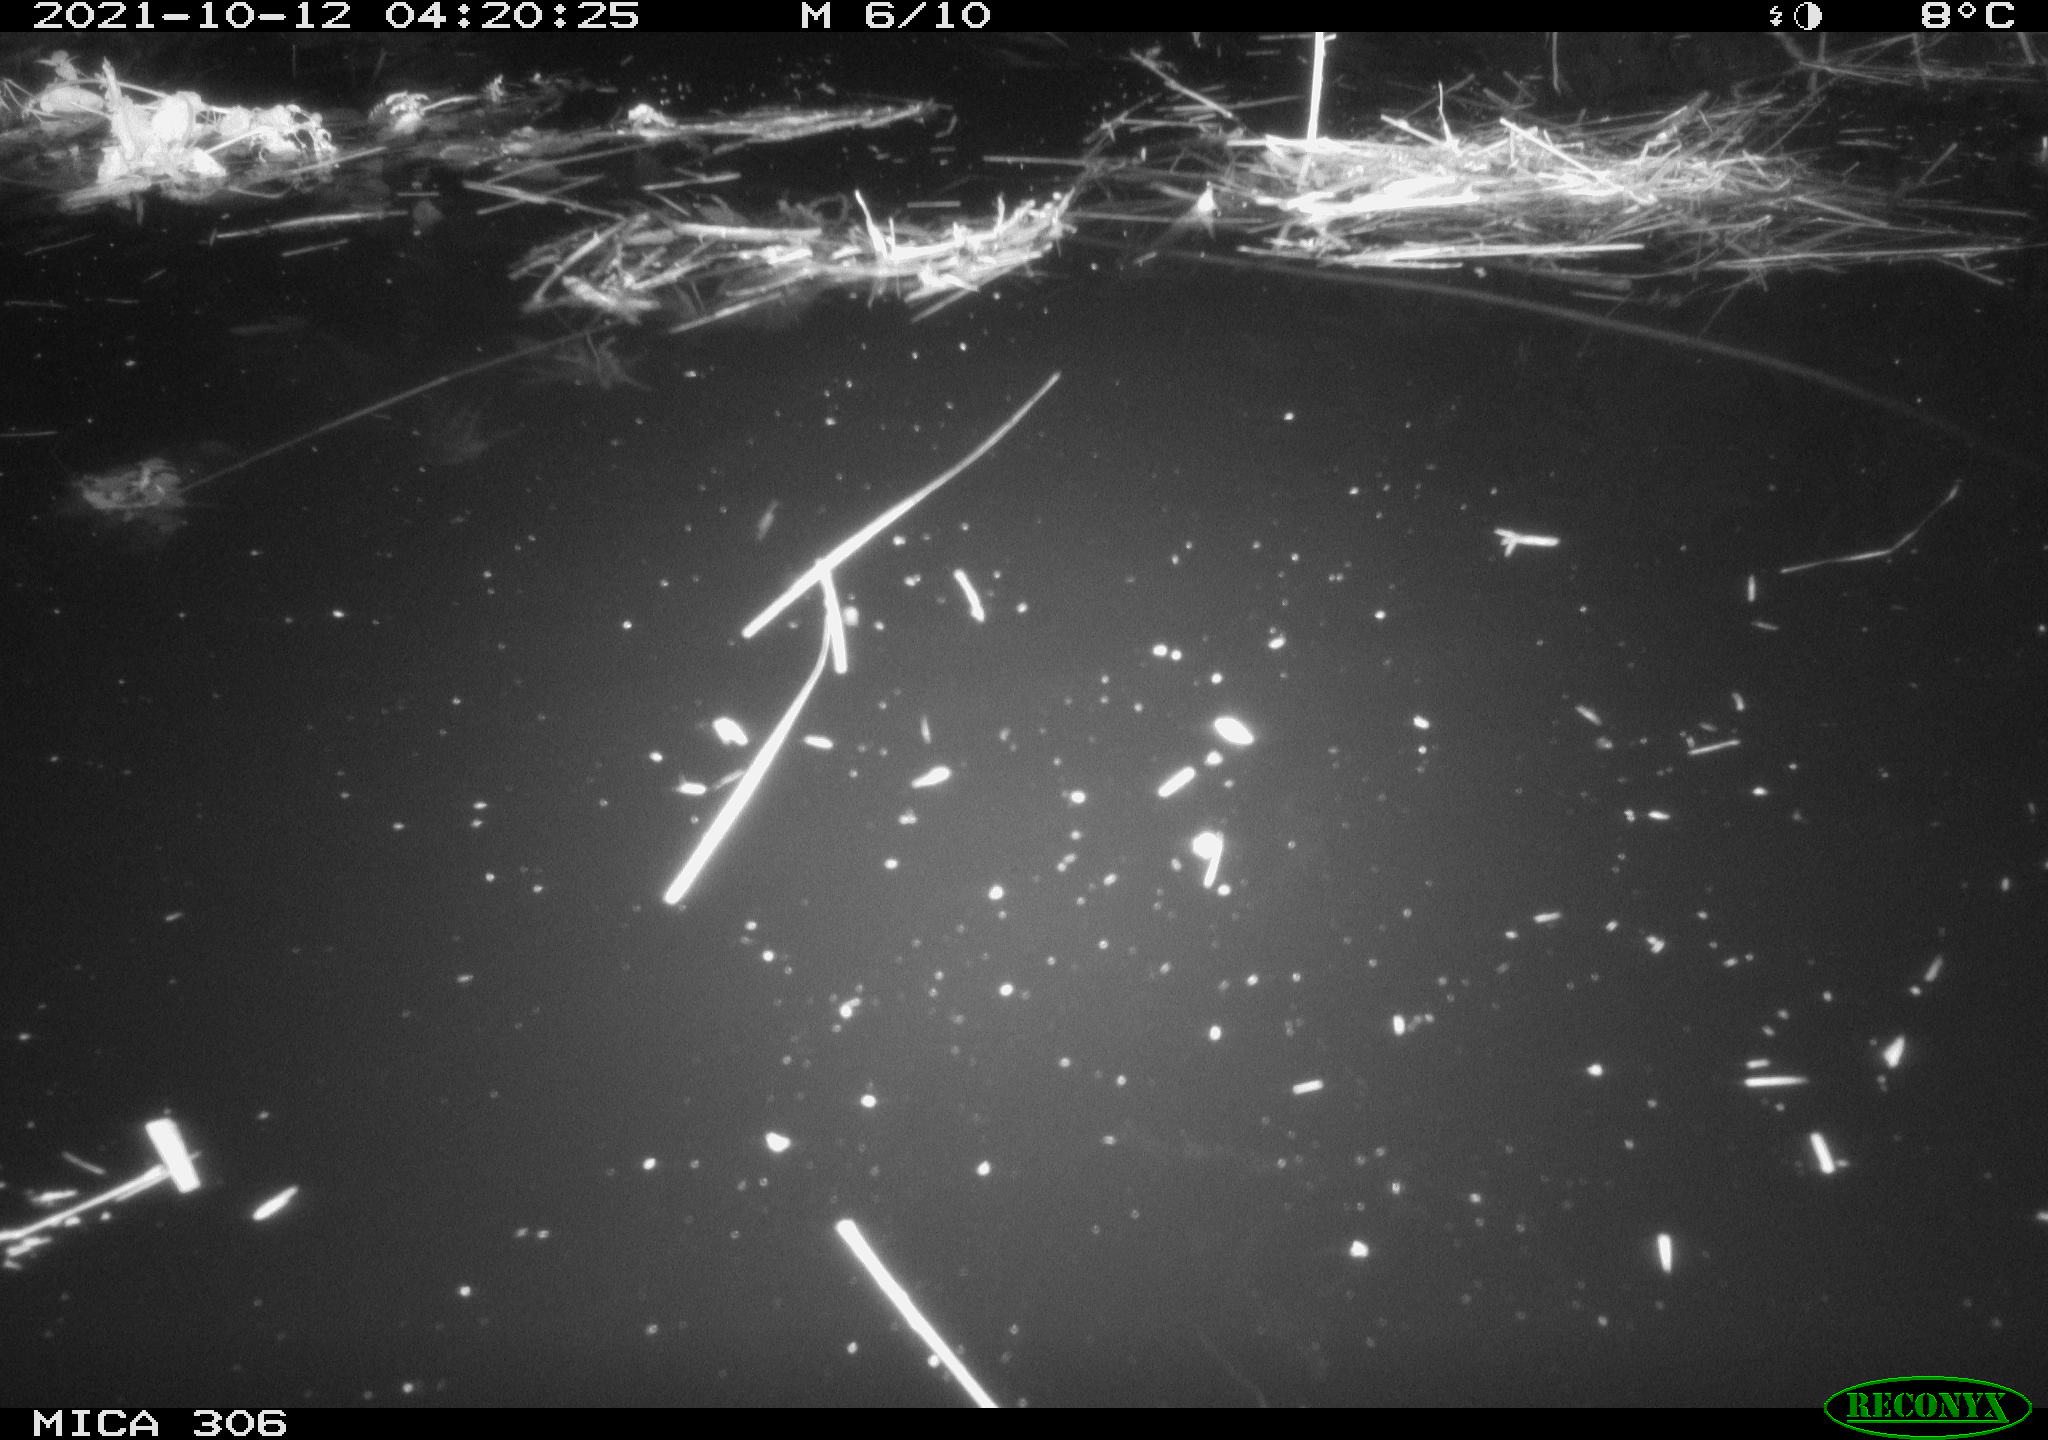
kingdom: Animalia
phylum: Chordata
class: Mammalia
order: Rodentia
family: Cricetidae
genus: Ondatra
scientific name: Ondatra zibethicus
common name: Muskrat
